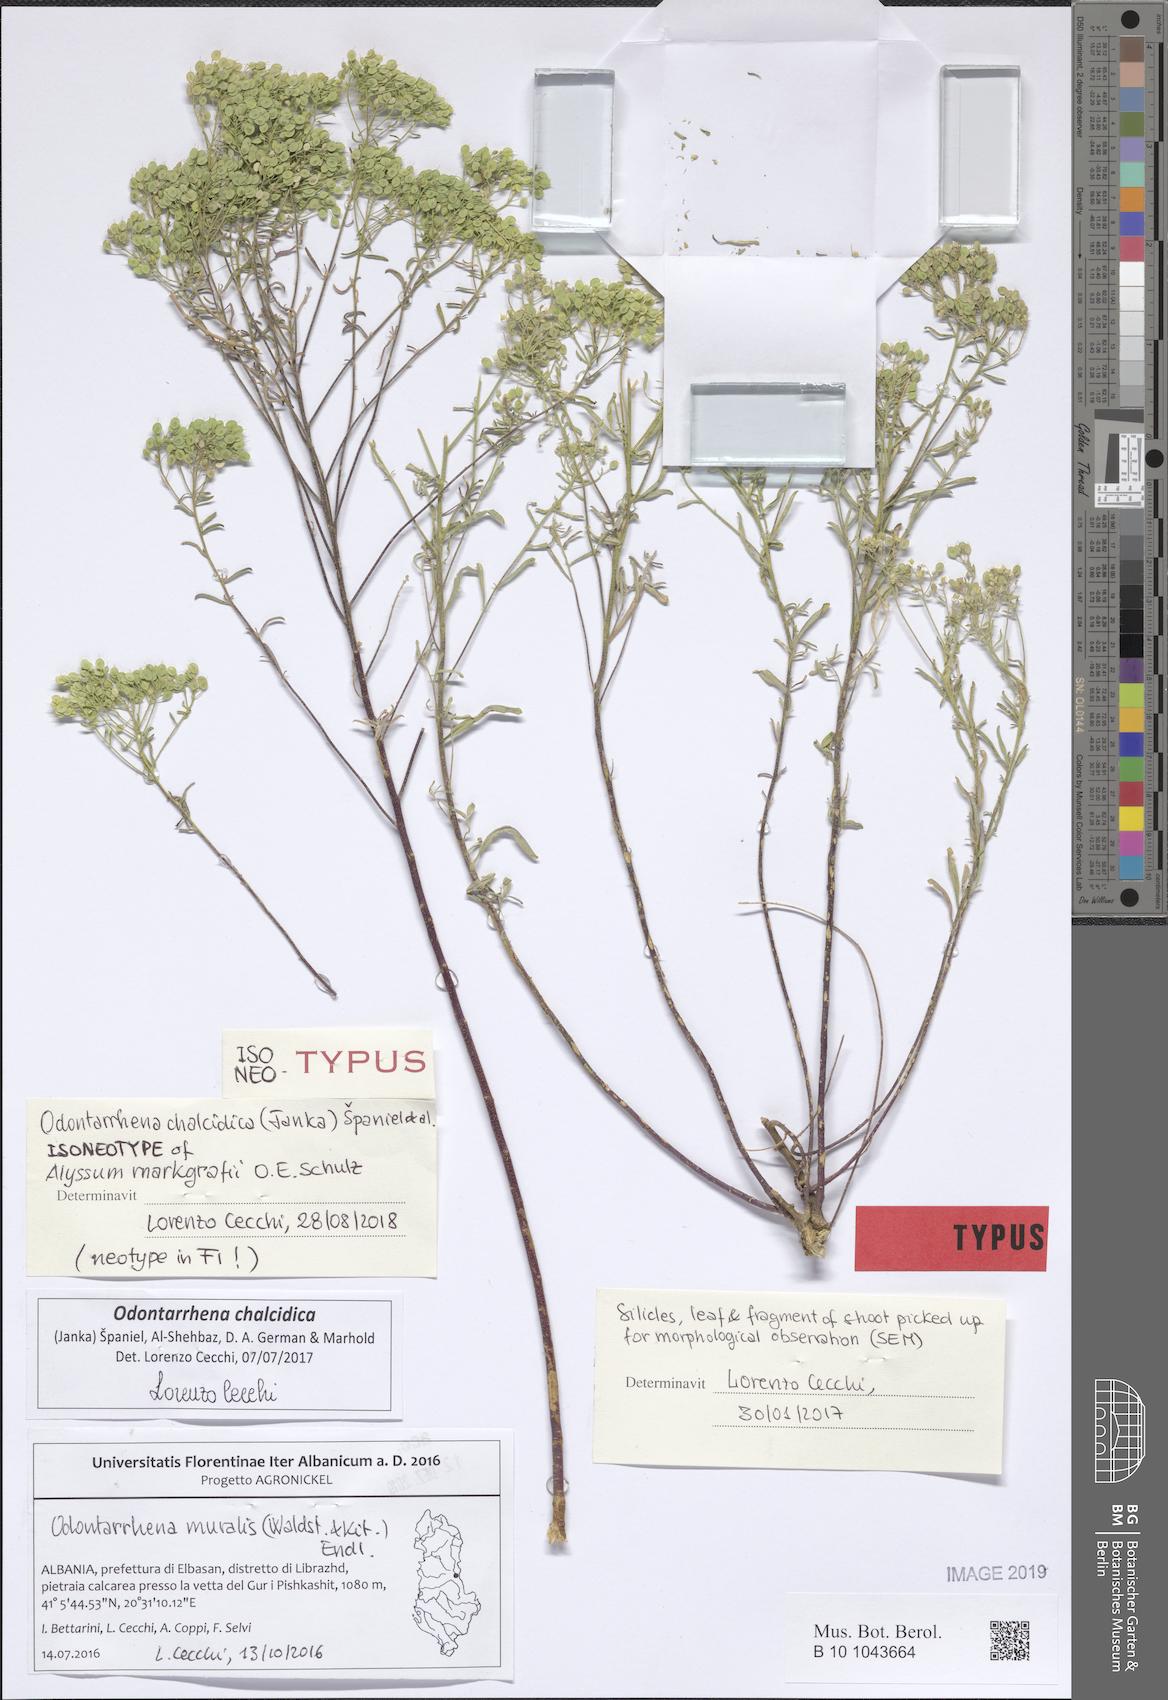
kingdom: Plantae
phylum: Tracheophyta
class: Magnoliopsida
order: Brassicales
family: Brassicaceae
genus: Odontarrhena
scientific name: Odontarrhena chalcidica
